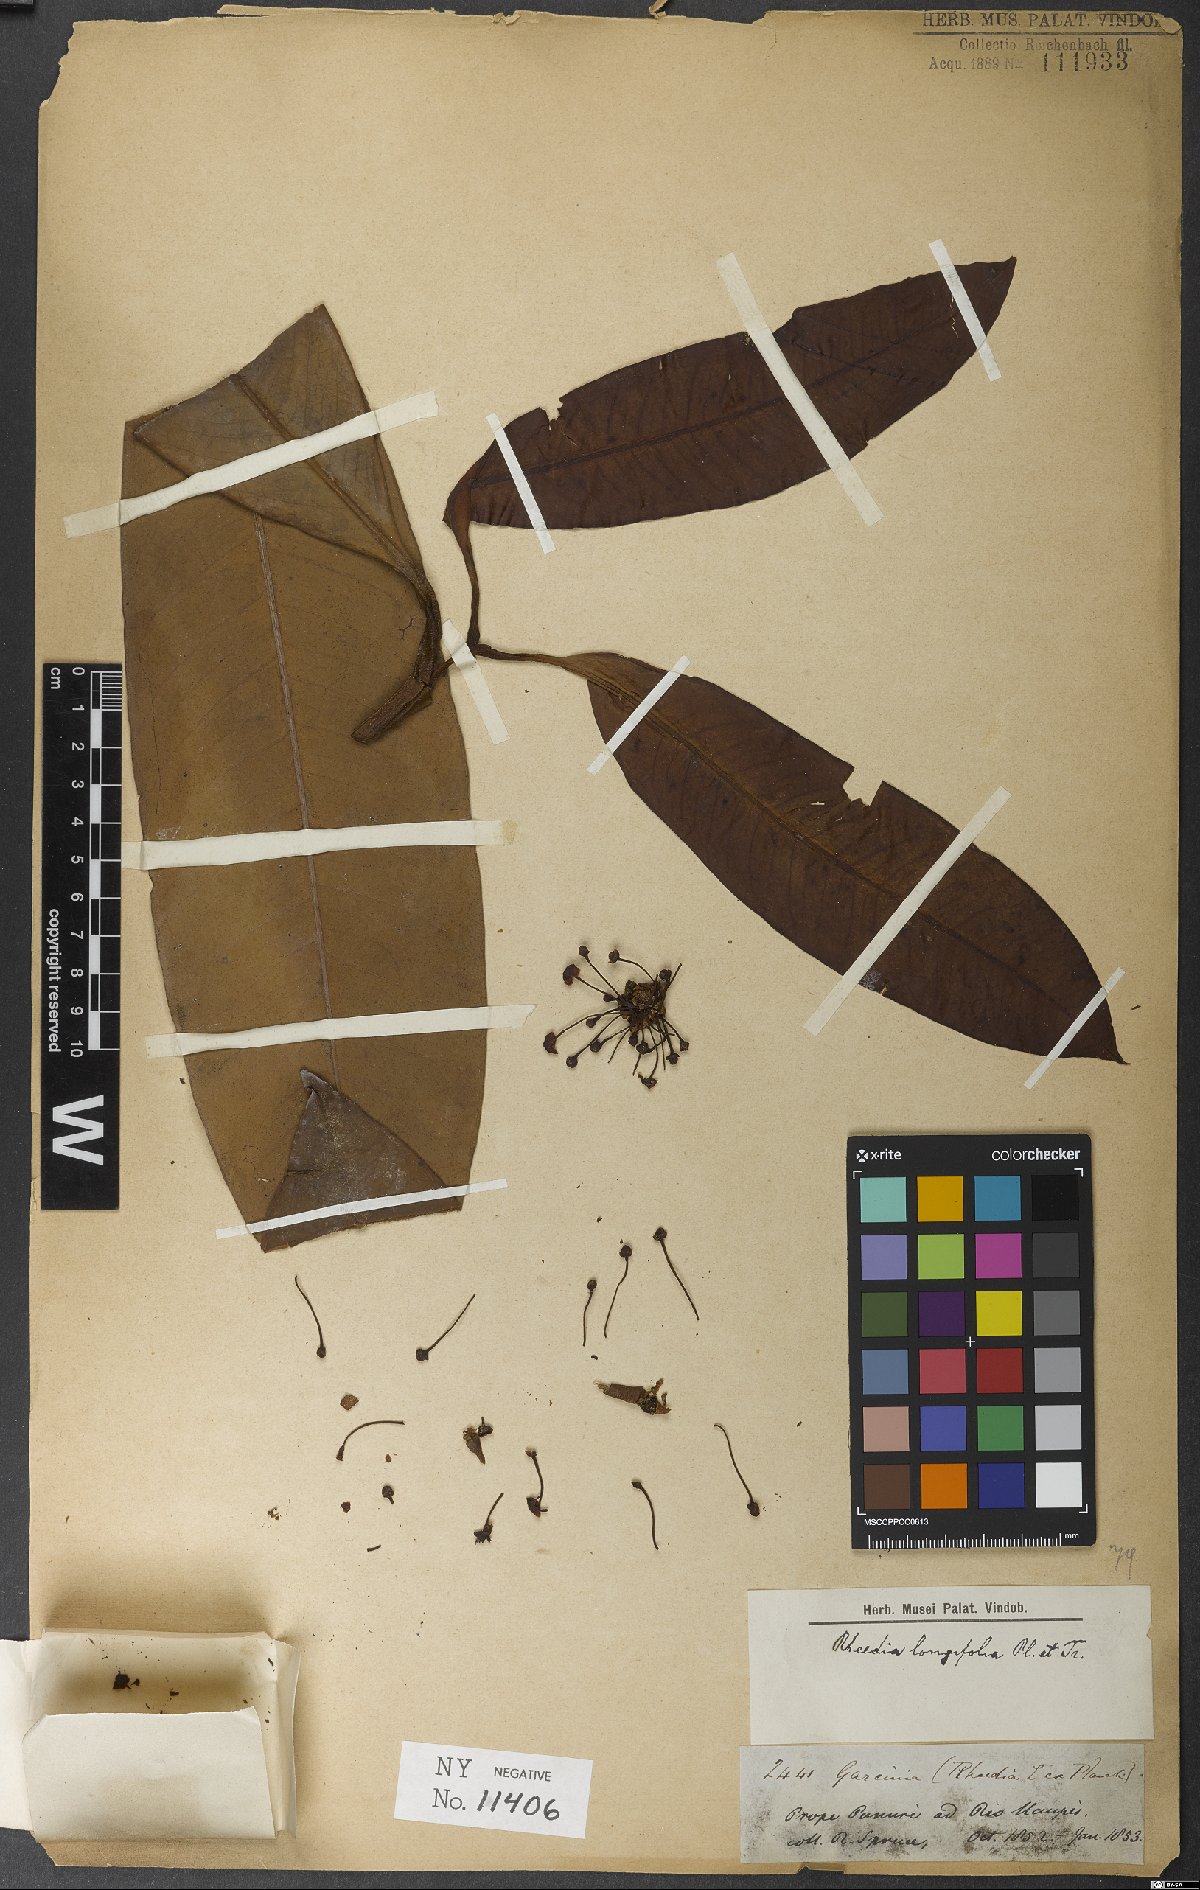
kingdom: Plantae
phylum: Tracheophyta
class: Magnoliopsida
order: Malpighiales
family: Clusiaceae
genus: Garcinia
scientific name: Garcinia leptophylla
